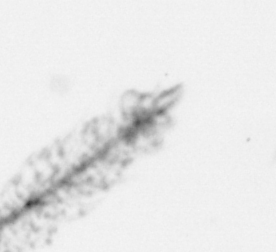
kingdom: Chromista
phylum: Ochrophyta
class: Bacillariophyceae
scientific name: Bacillariophyceae
